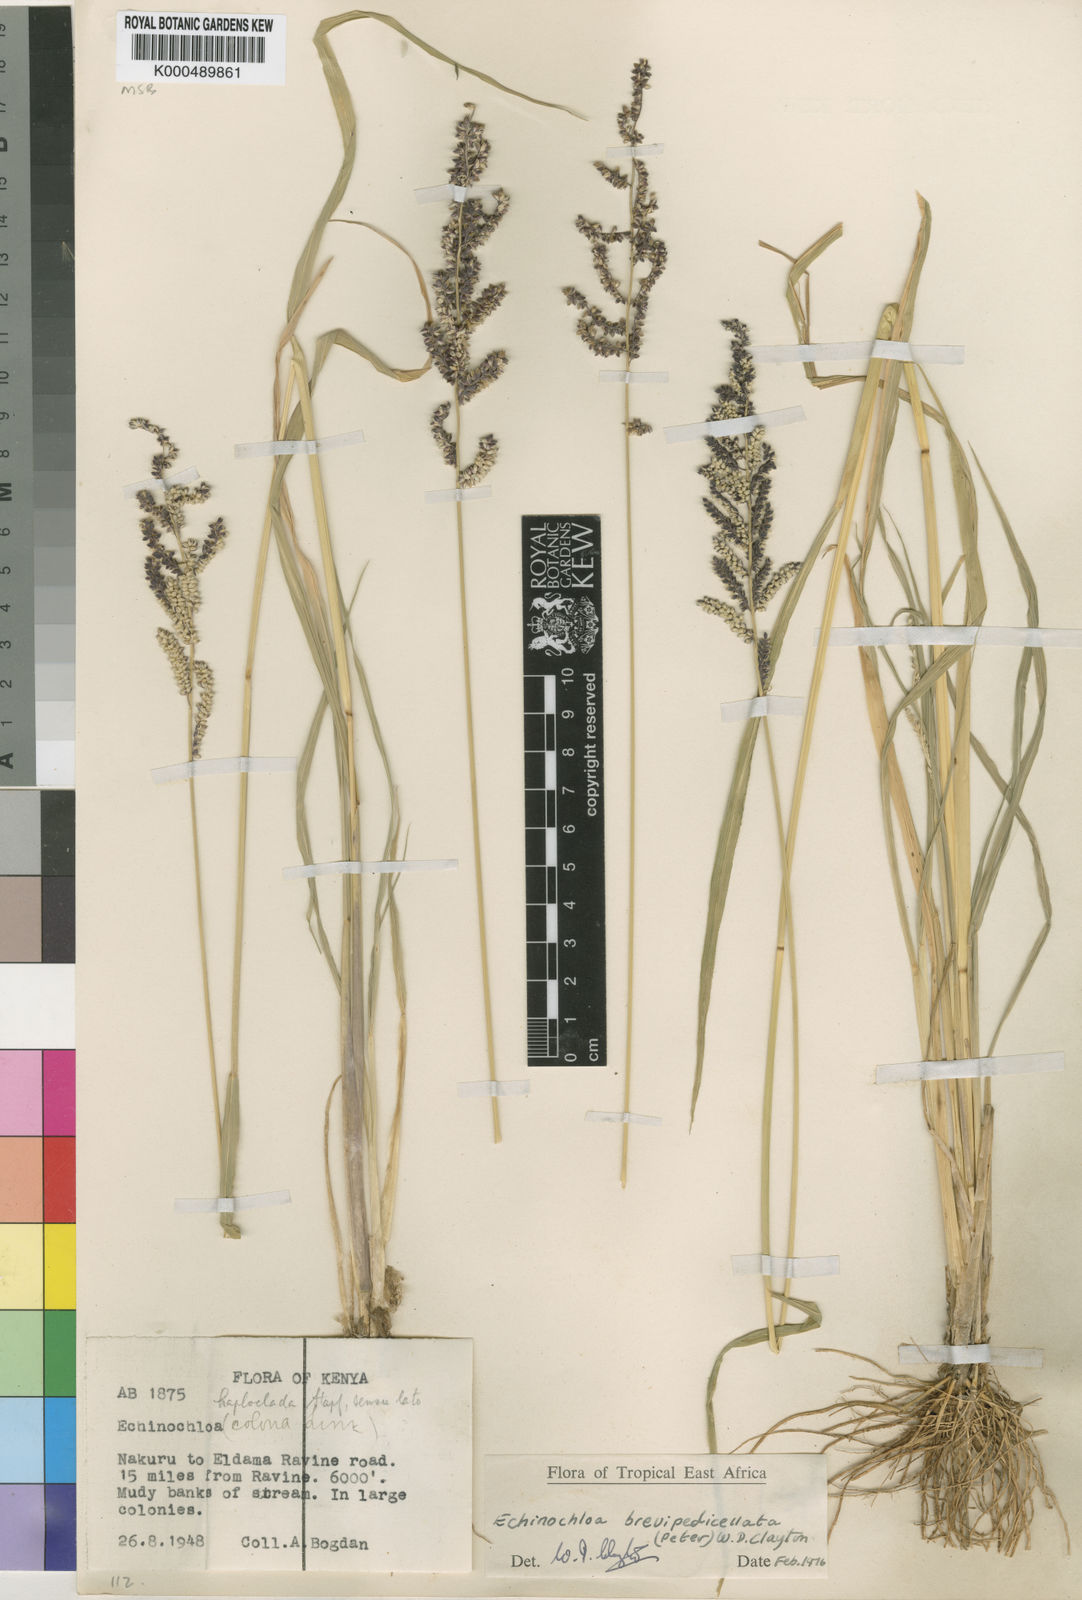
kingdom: Plantae
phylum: Tracheophyta
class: Liliopsida
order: Poales
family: Poaceae
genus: Echinochloa
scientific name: Echinochloa brevipedicellata
